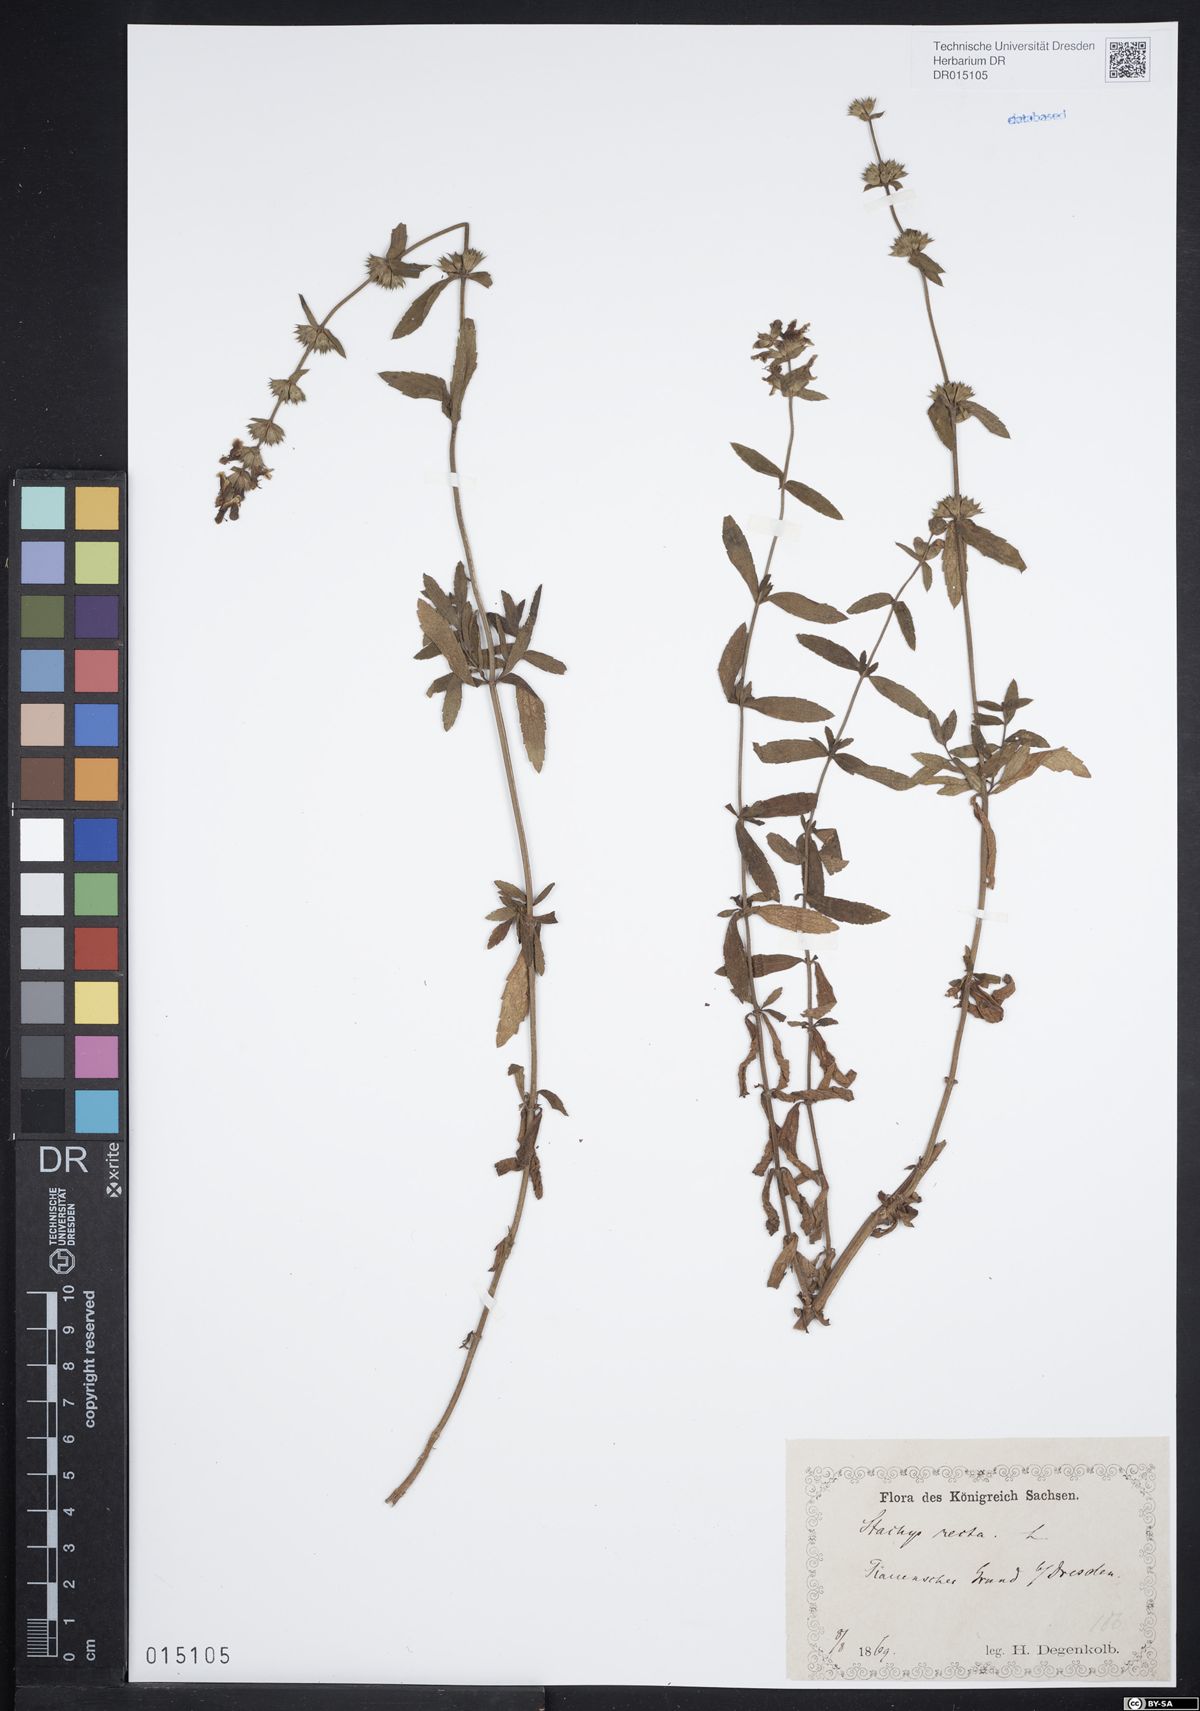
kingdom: Plantae
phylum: Tracheophyta
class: Magnoliopsida
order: Lamiales
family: Lamiaceae
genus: Stachys
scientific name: Stachys recta
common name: Perennial yellow-woundwort
